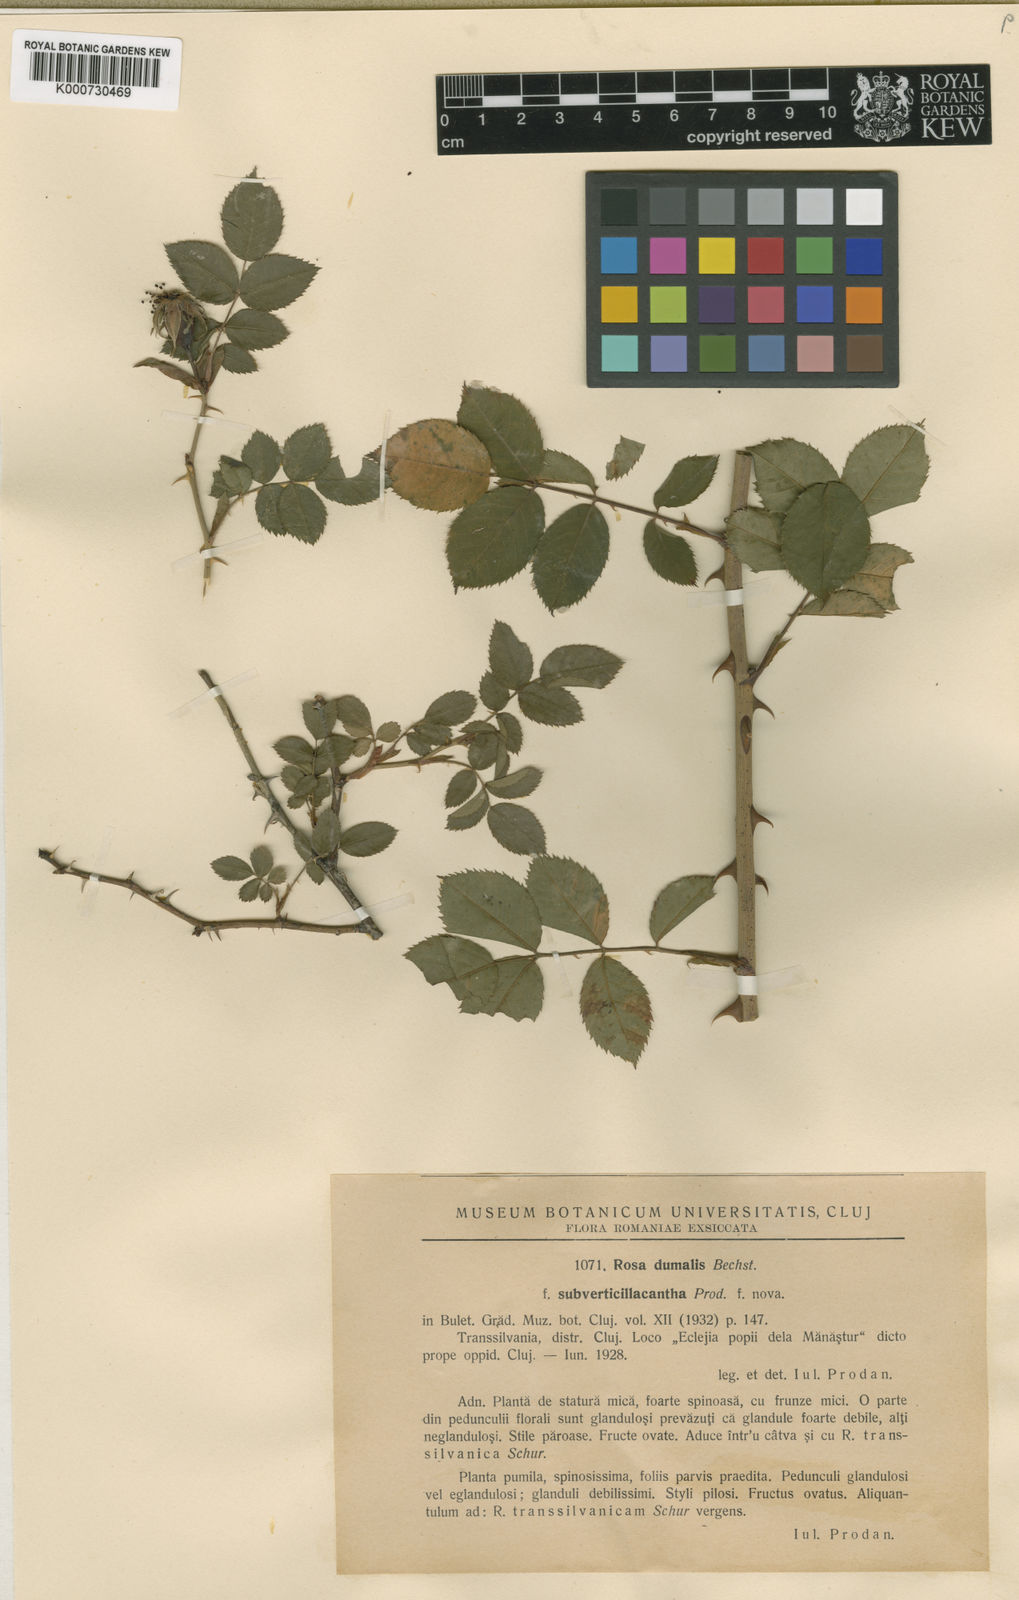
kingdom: Plantae
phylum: Tracheophyta
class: Magnoliopsida
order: Rosales
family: Rosaceae
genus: Rosa
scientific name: Rosa canina
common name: Dog rose
